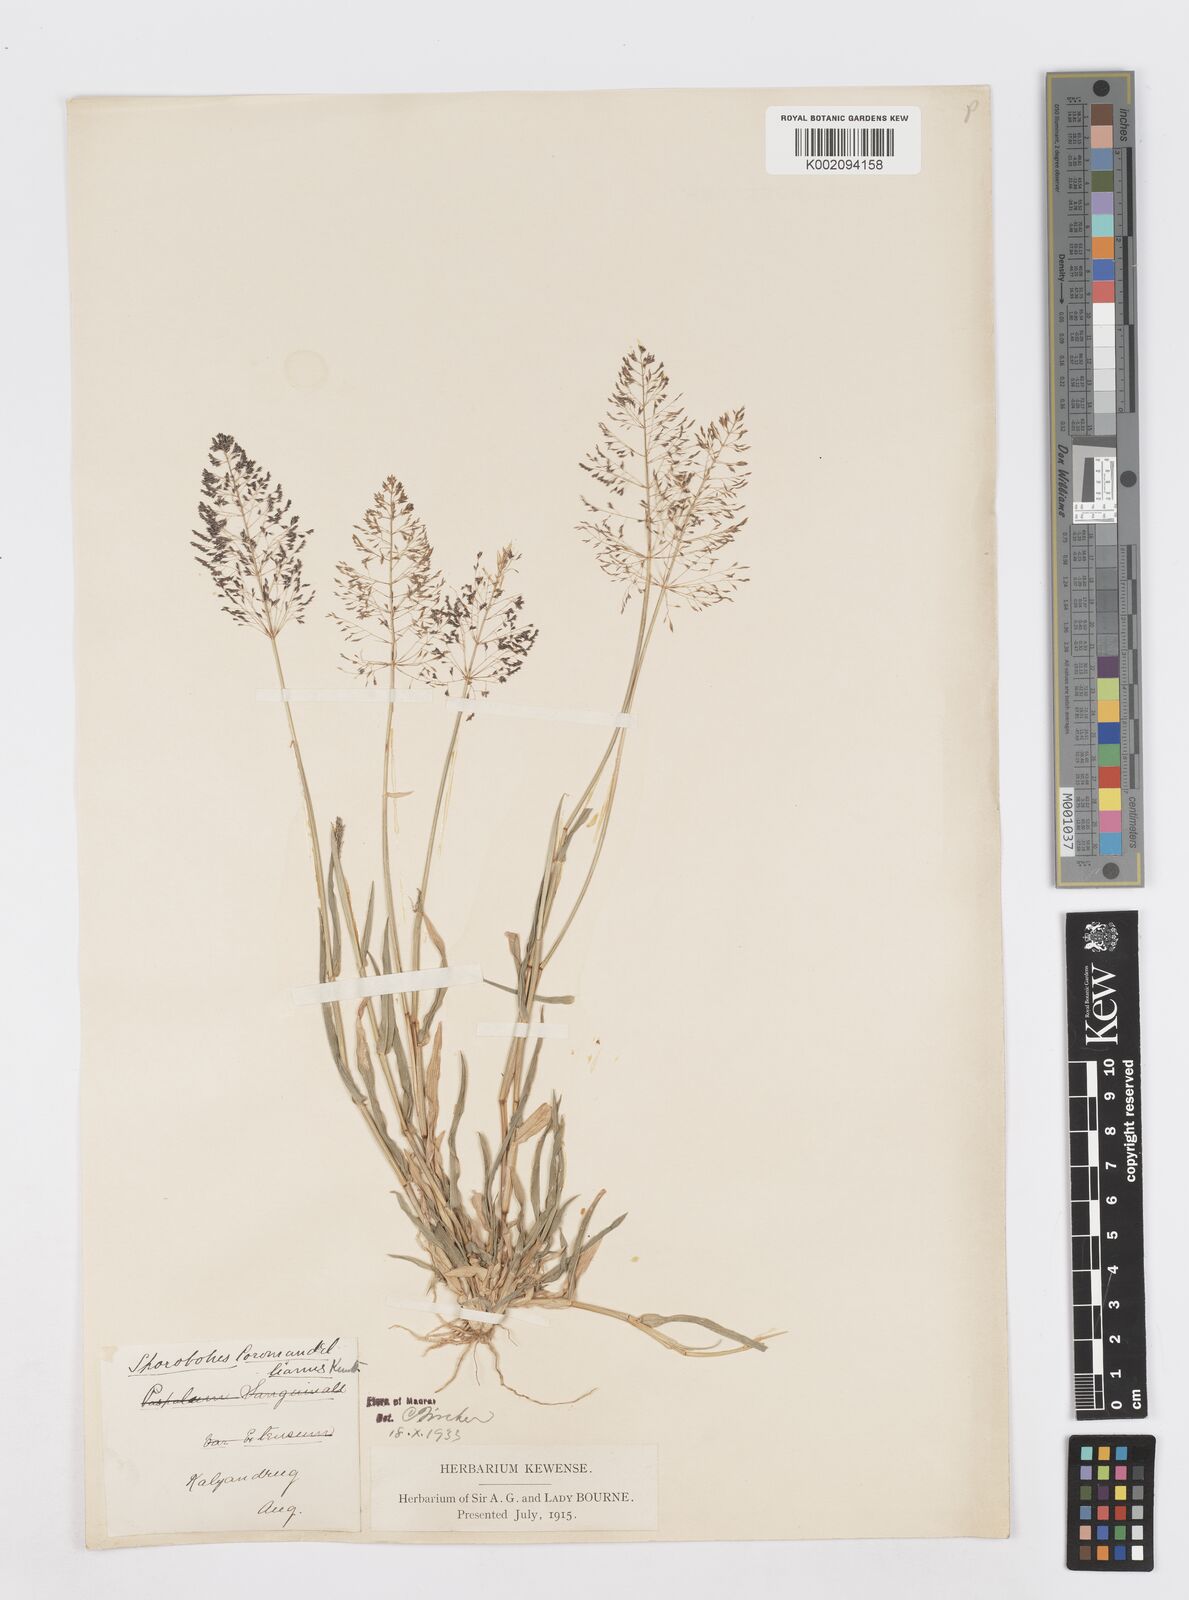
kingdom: Plantae
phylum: Tracheophyta
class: Liliopsida
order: Poales
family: Poaceae
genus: Sporobolus
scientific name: Sporobolus coromandelianus
